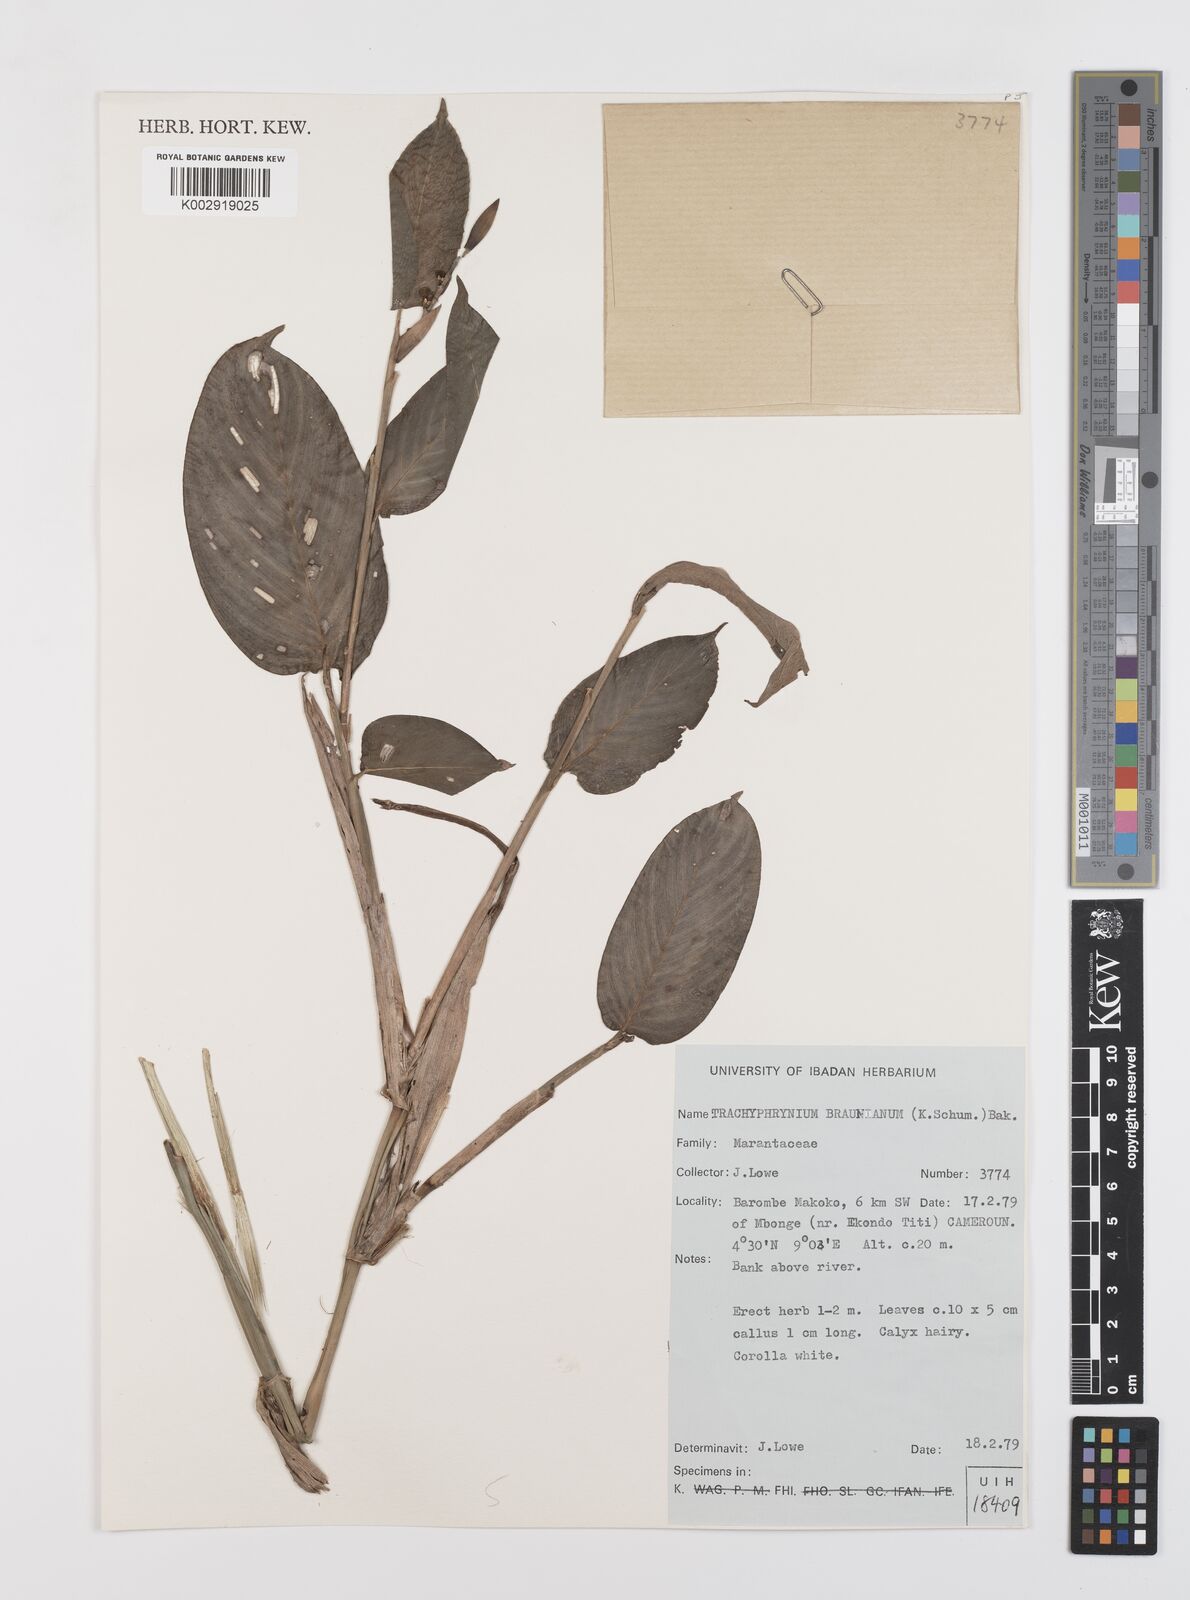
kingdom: Plantae
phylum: Tracheophyta
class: Liliopsida
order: Zingiberales
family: Marantaceae
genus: Trachyphrynium
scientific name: Trachyphrynium braunianum
